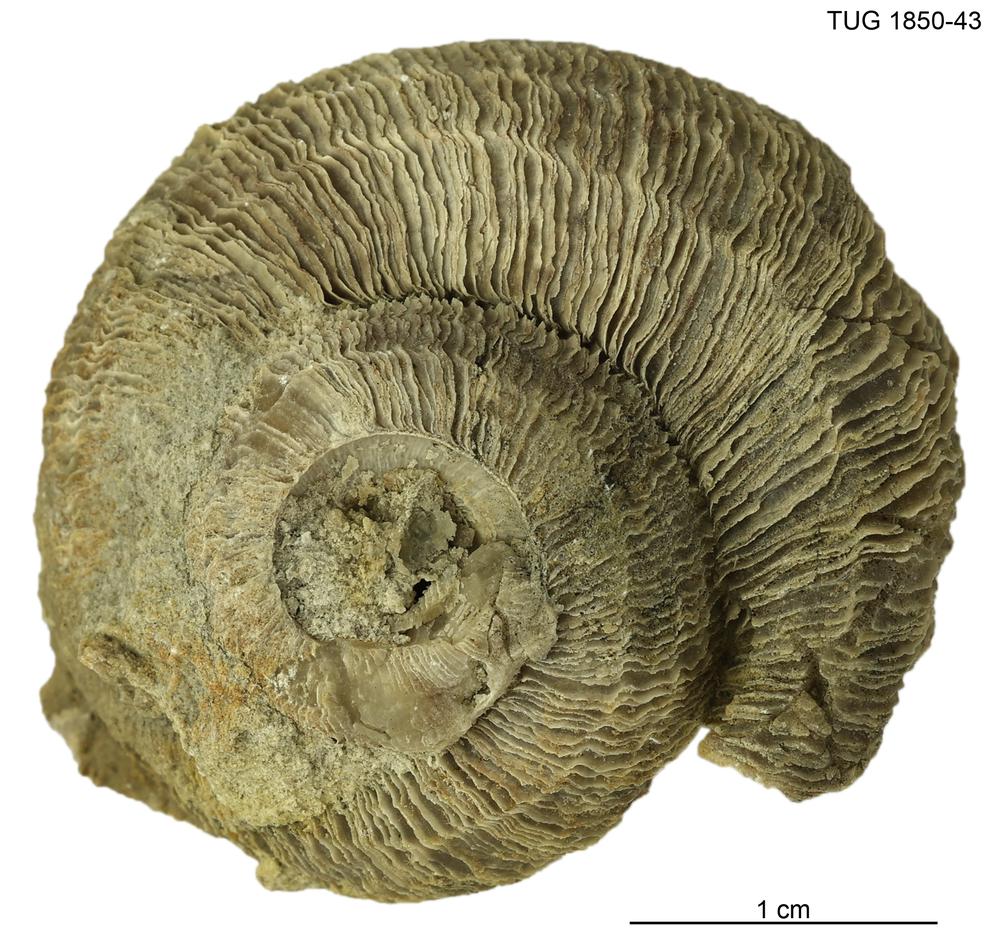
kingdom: Animalia
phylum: Mollusca
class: Gastropoda
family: Euomphalidae
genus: Poleumita
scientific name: Poleumita
